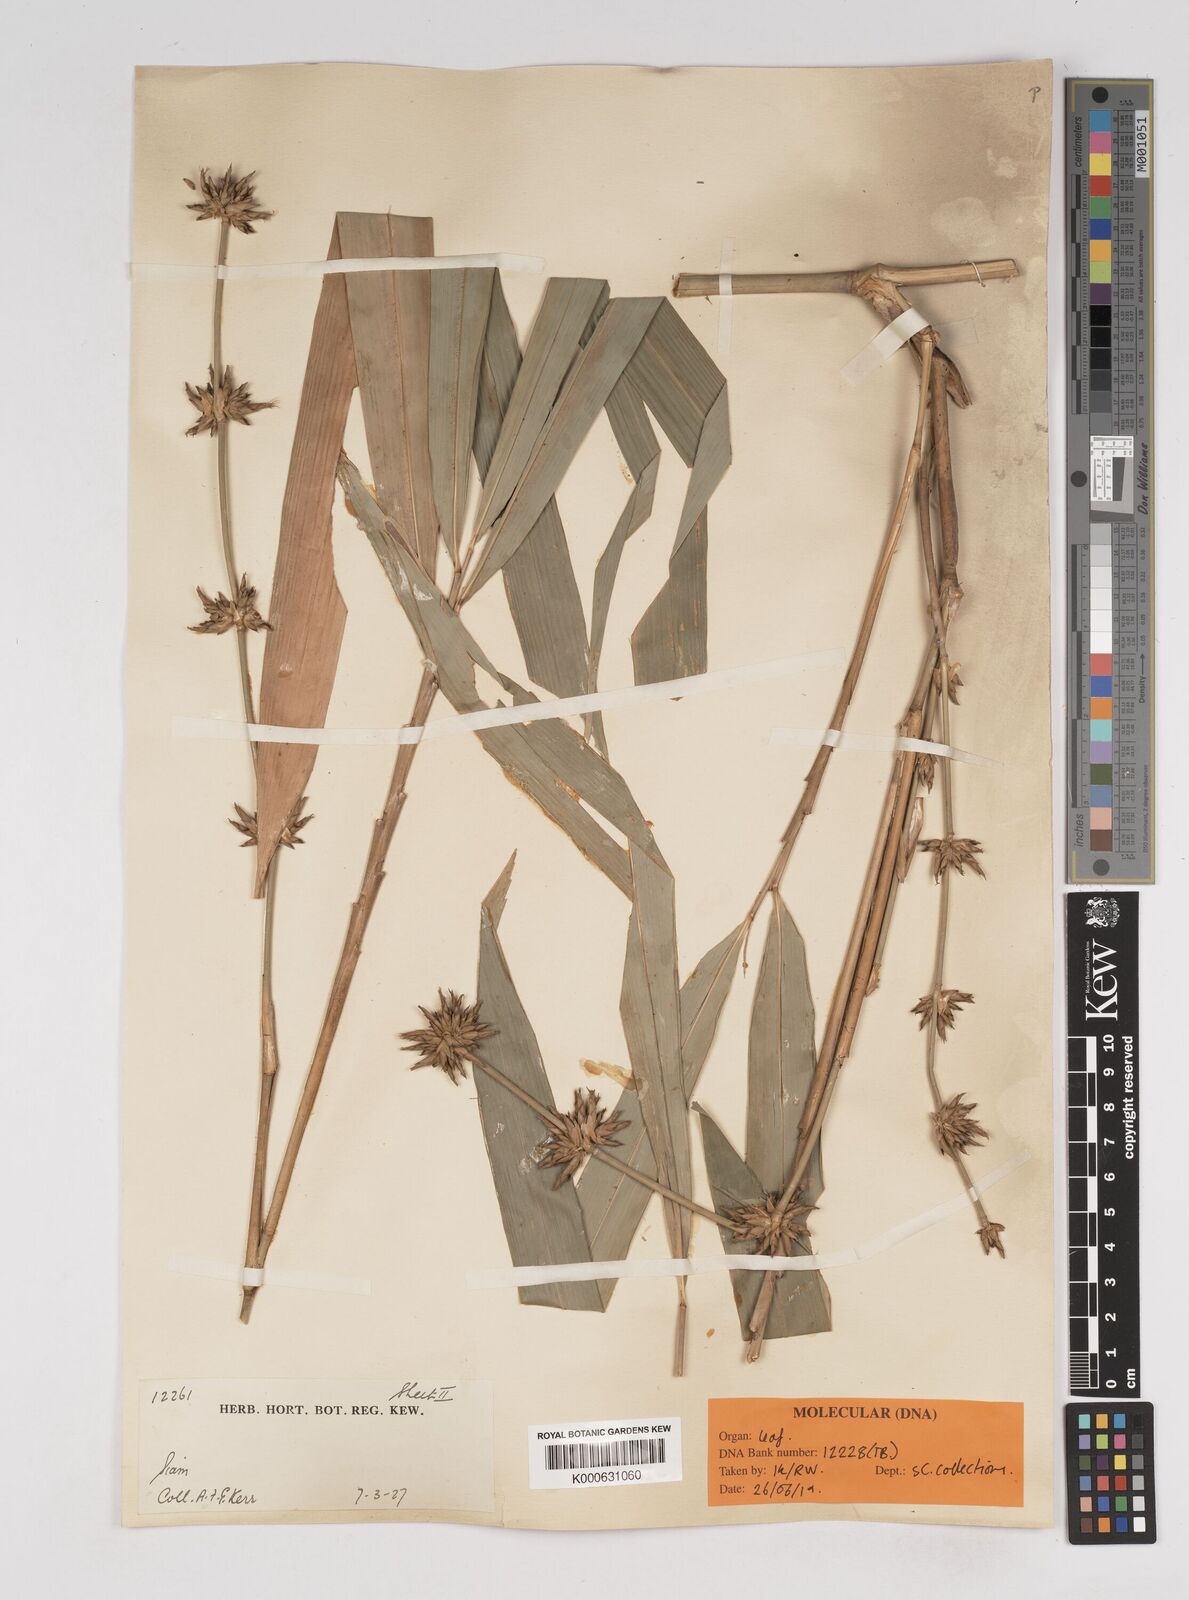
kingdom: Plantae
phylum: Tracheophyta
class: Liliopsida
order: Poales
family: Poaceae
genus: Gigantochloa
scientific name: Gigantochloa apus
